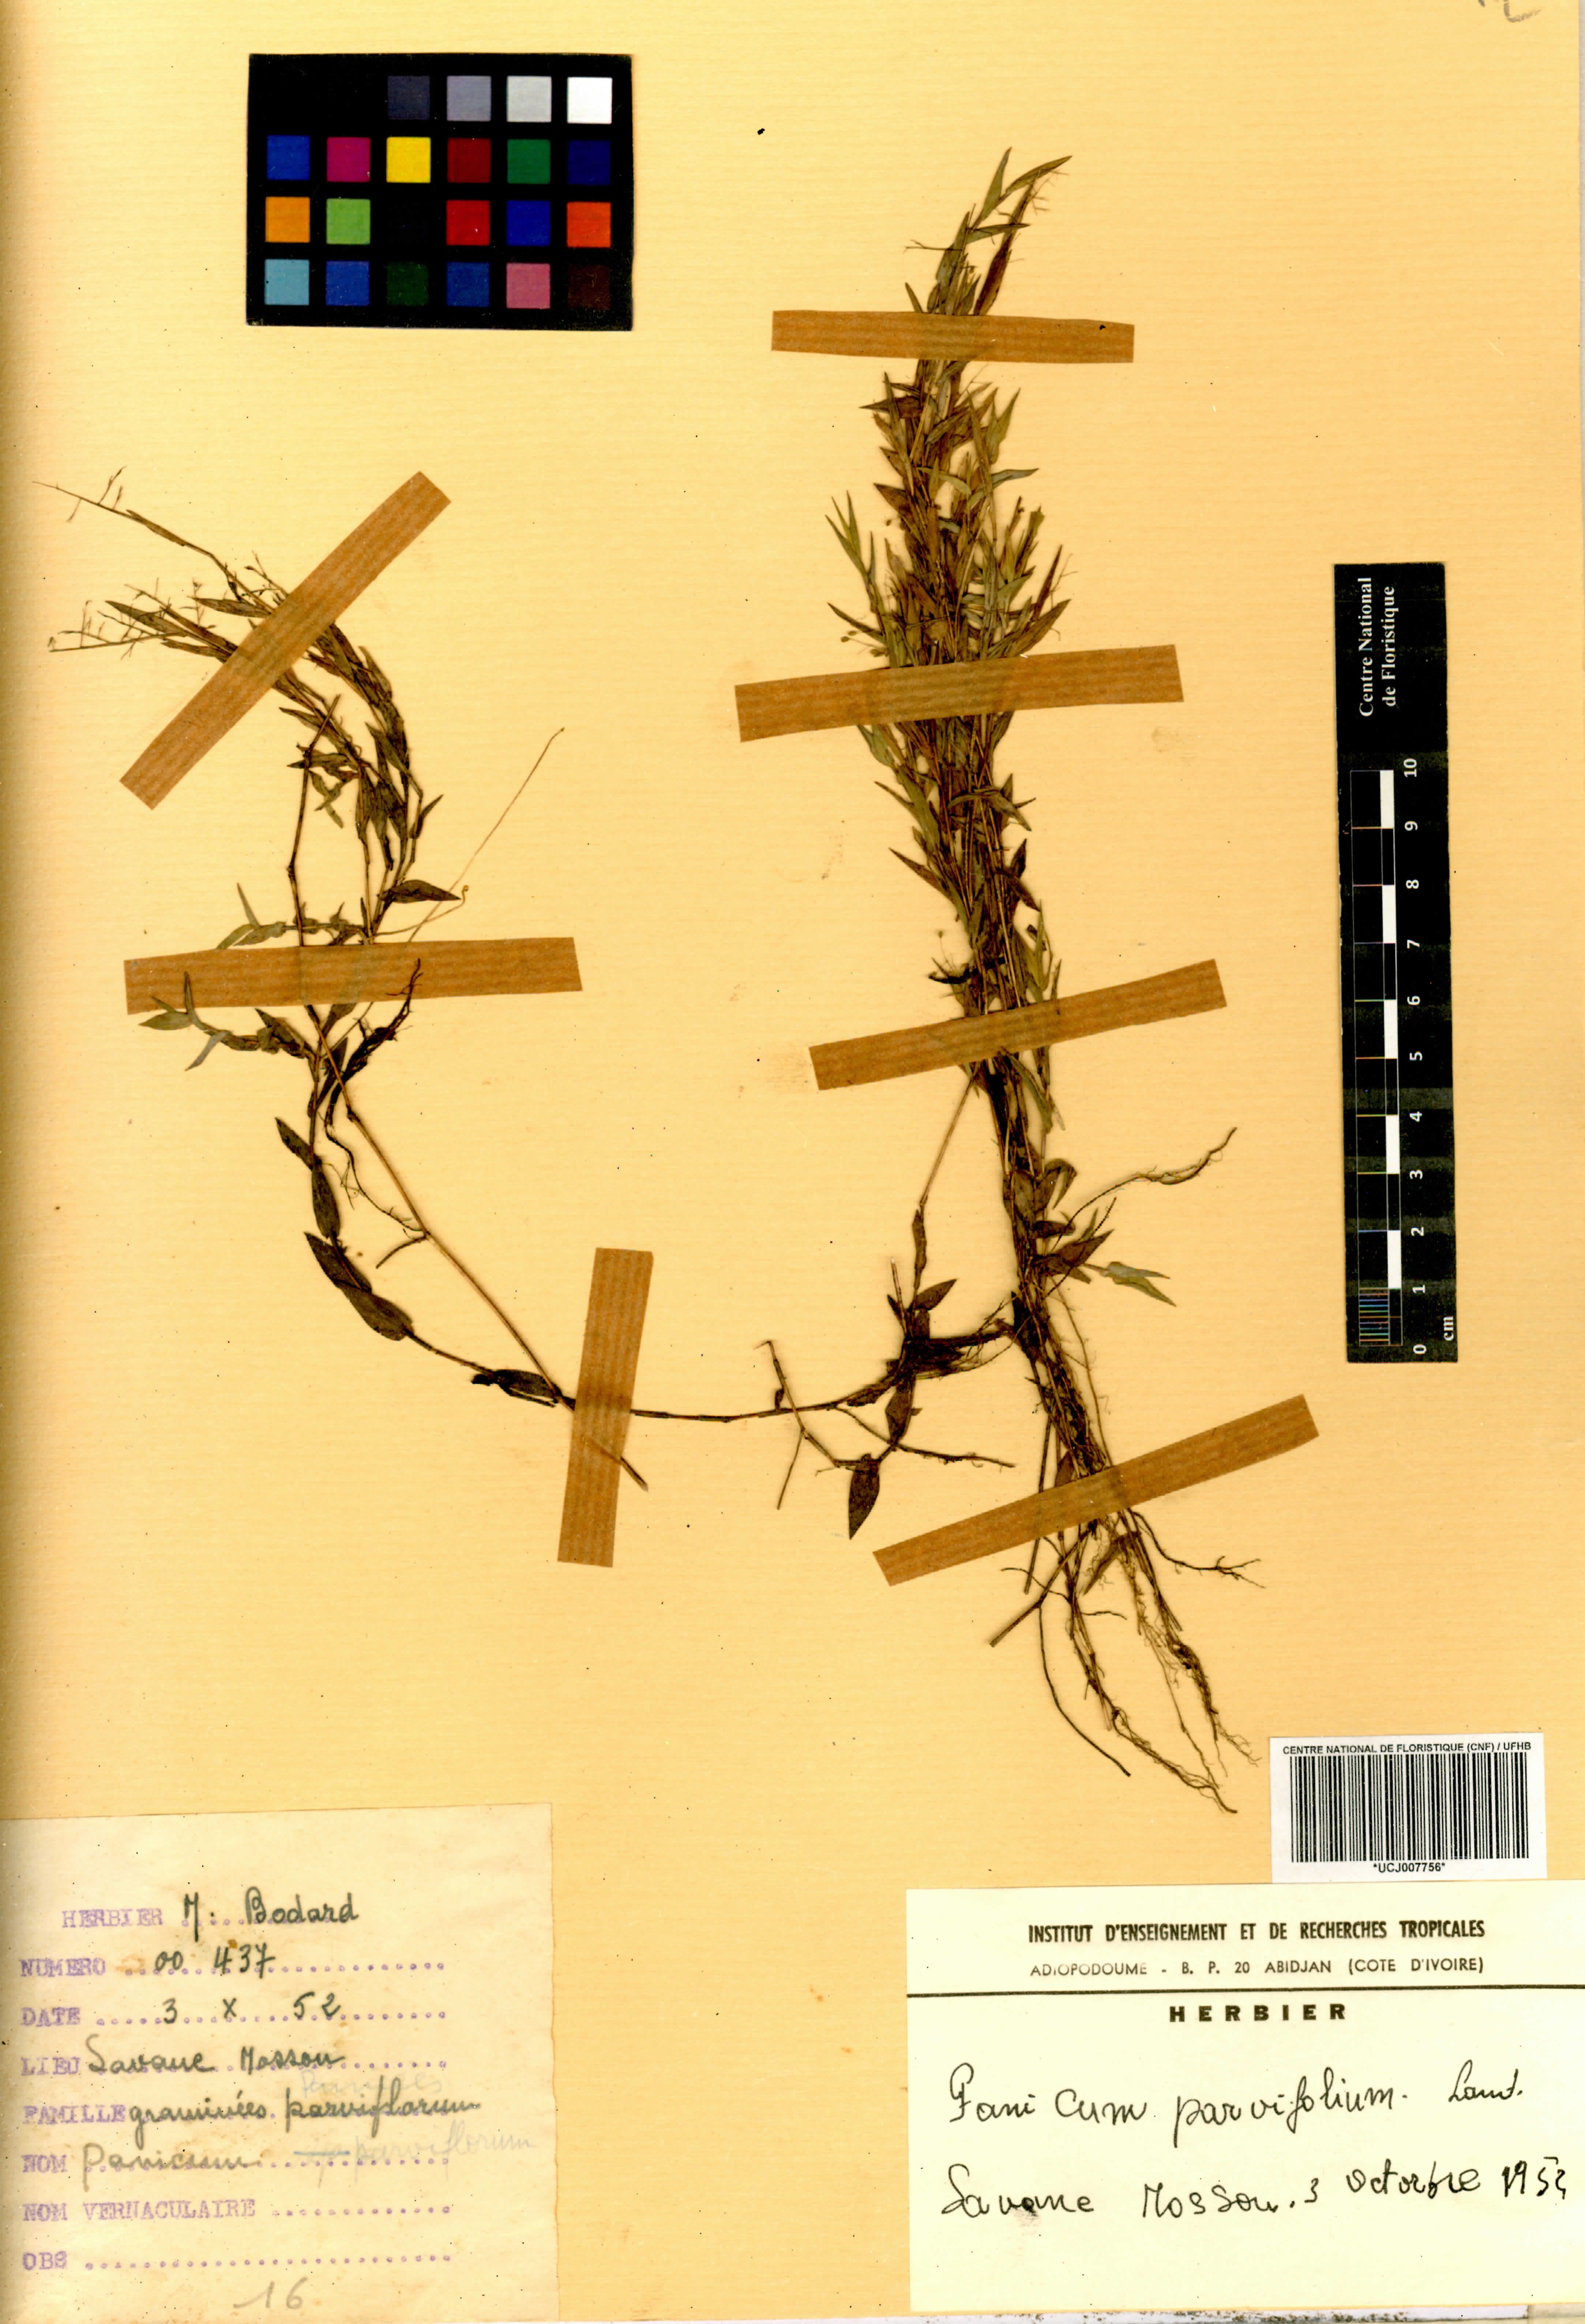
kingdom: Plantae
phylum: Tracheophyta
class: Liliopsida
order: Poales
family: Poaceae
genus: Trichanthecium
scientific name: Trichanthecium parvifolium
